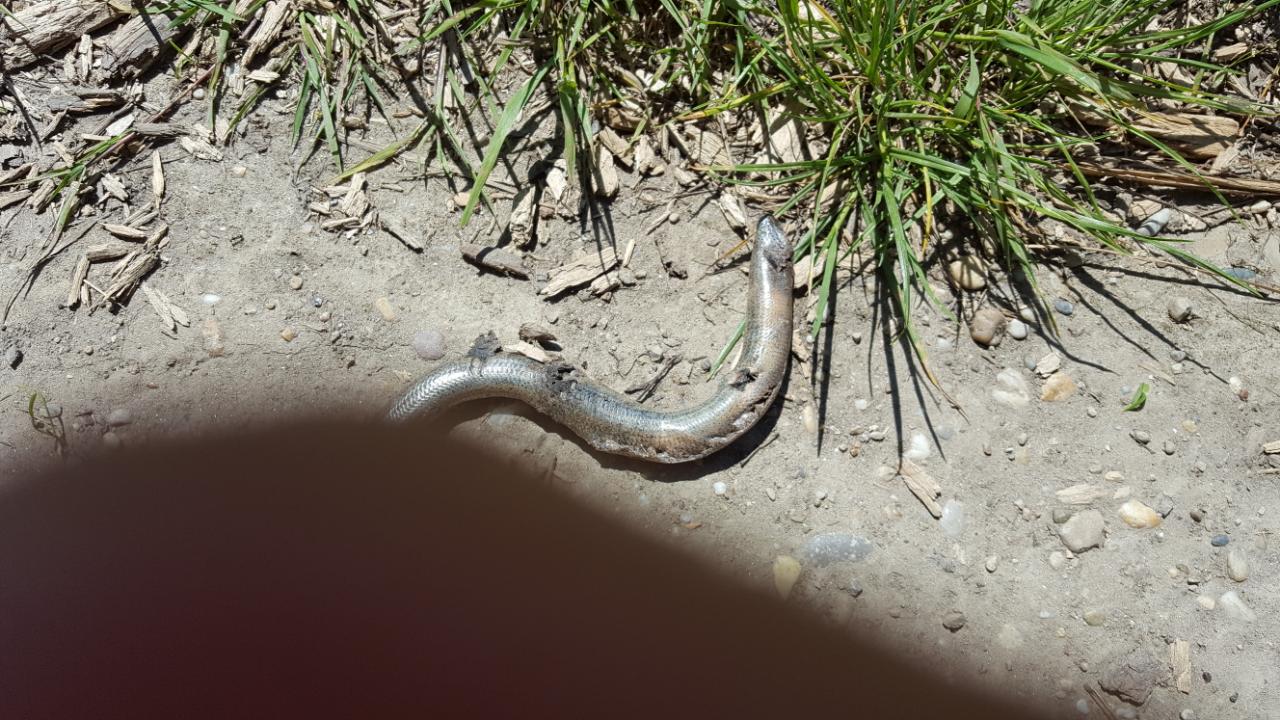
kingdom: Animalia
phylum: Chordata
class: Squamata
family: Anguidae
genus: Anguis
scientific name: Anguis fragilis
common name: Slow worm
